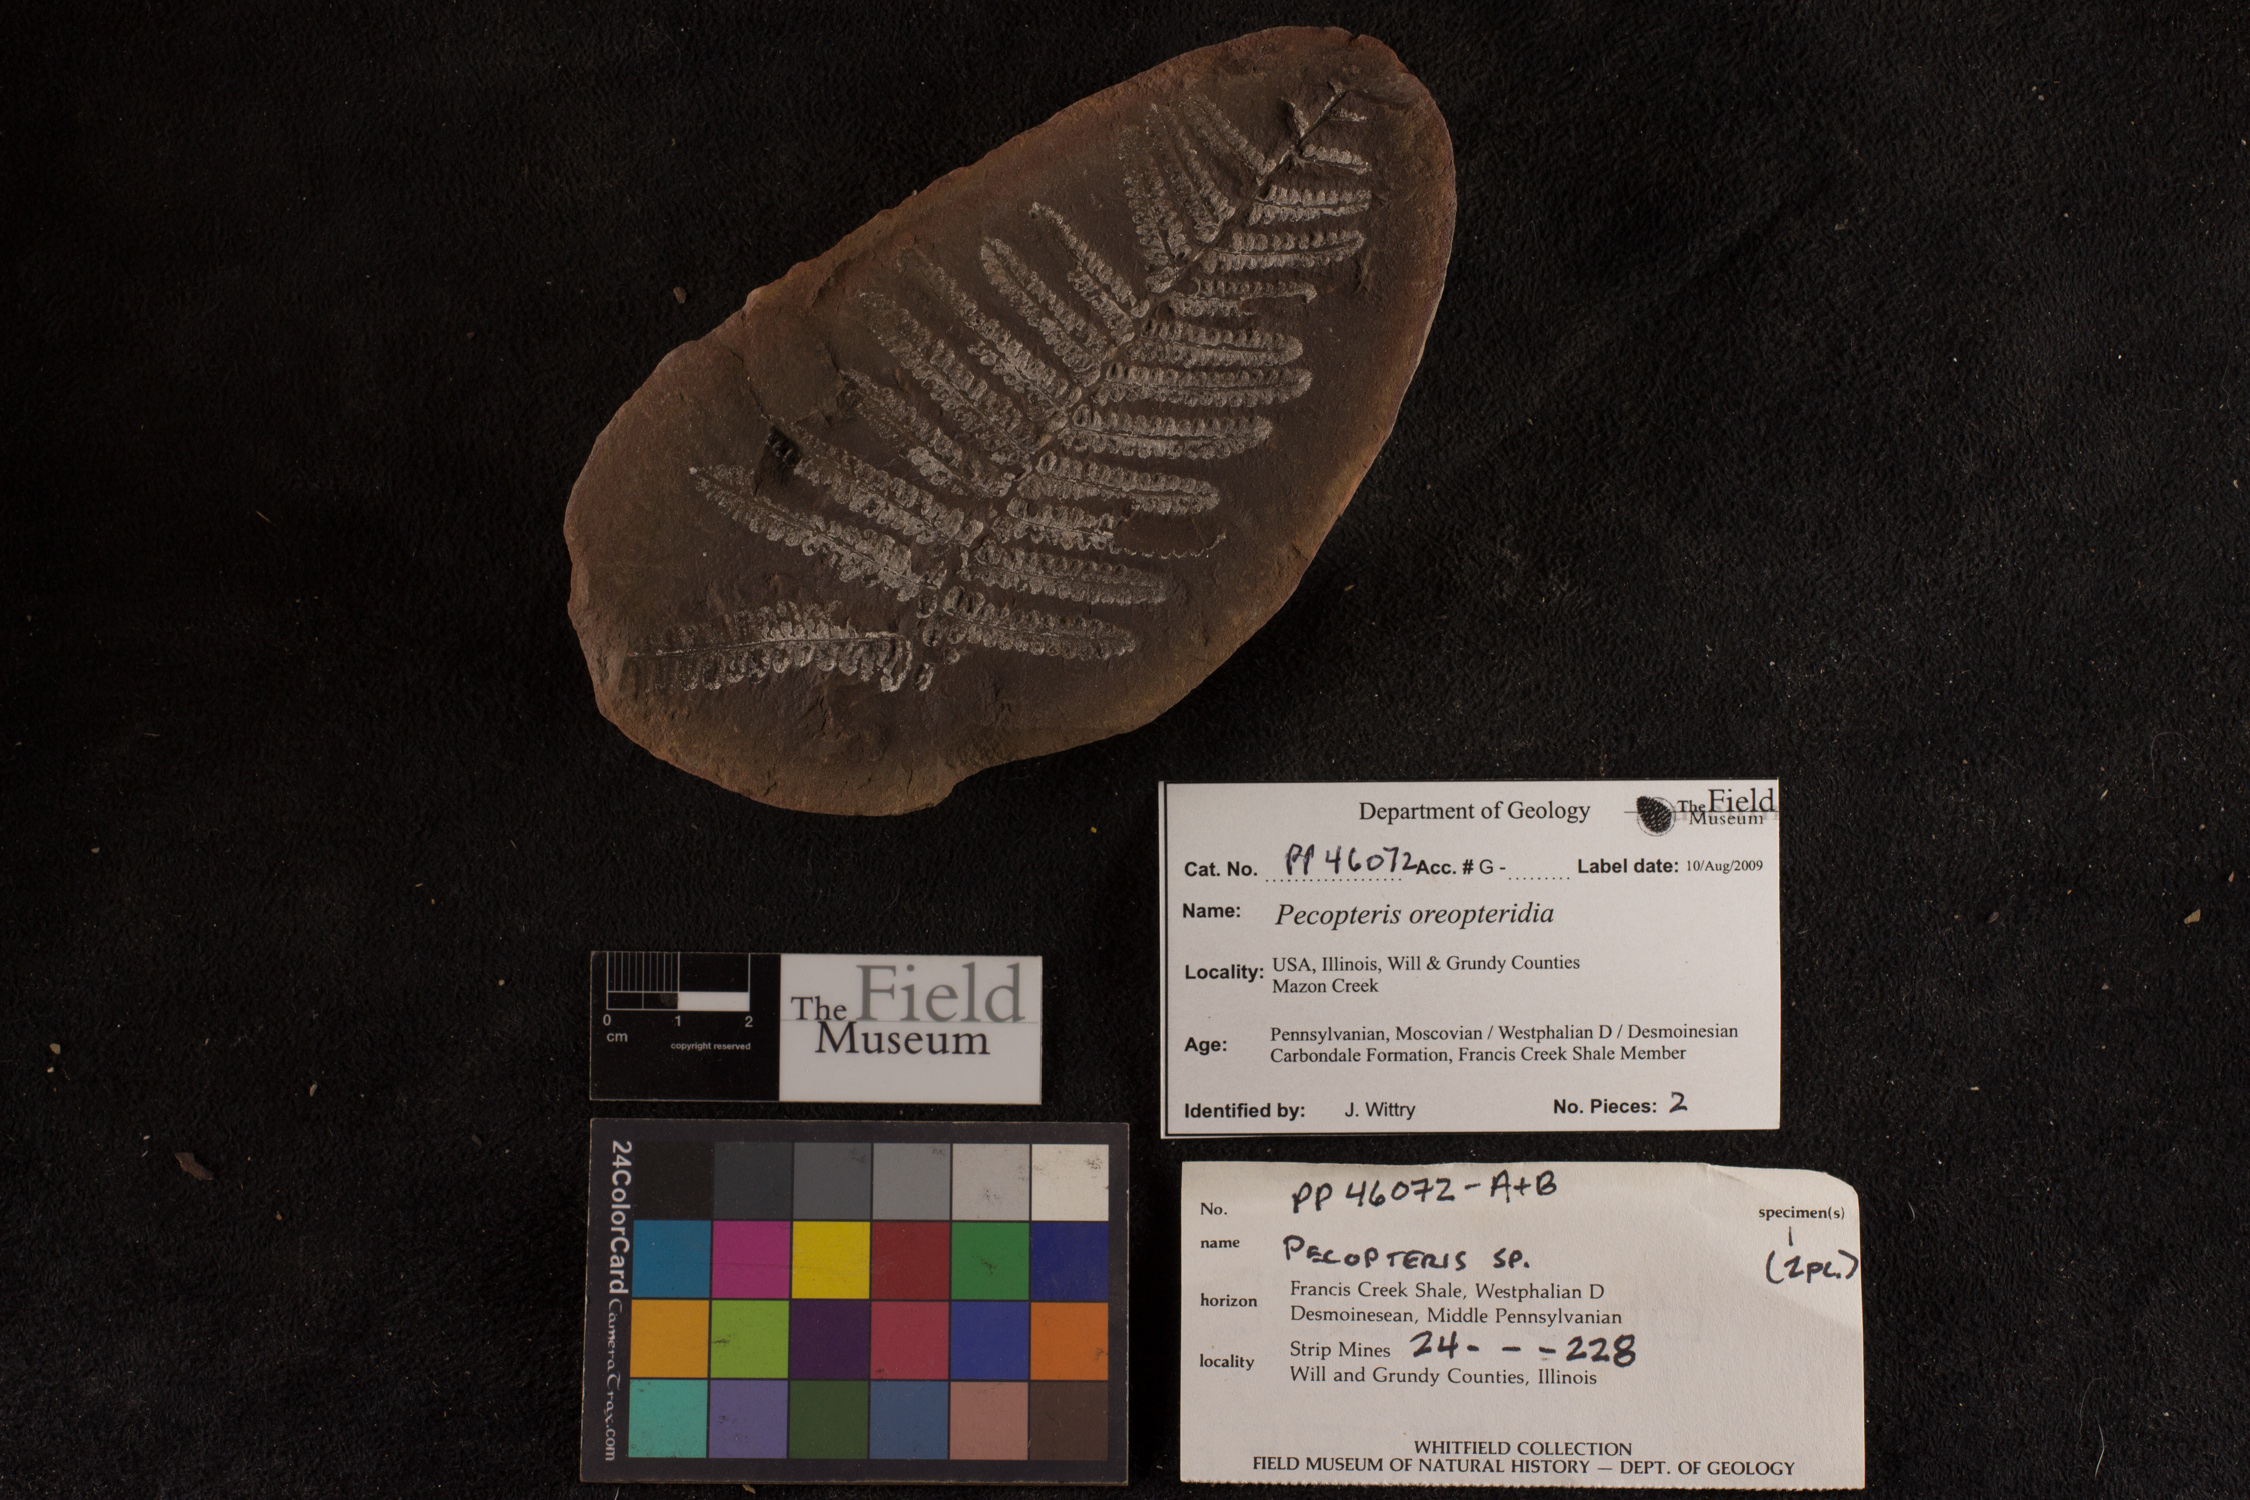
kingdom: Plantae
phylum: Tracheophyta
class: Polypodiopsida
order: Marattiales
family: Asterothecaceae
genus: Pecopteris
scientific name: Pecopteris
